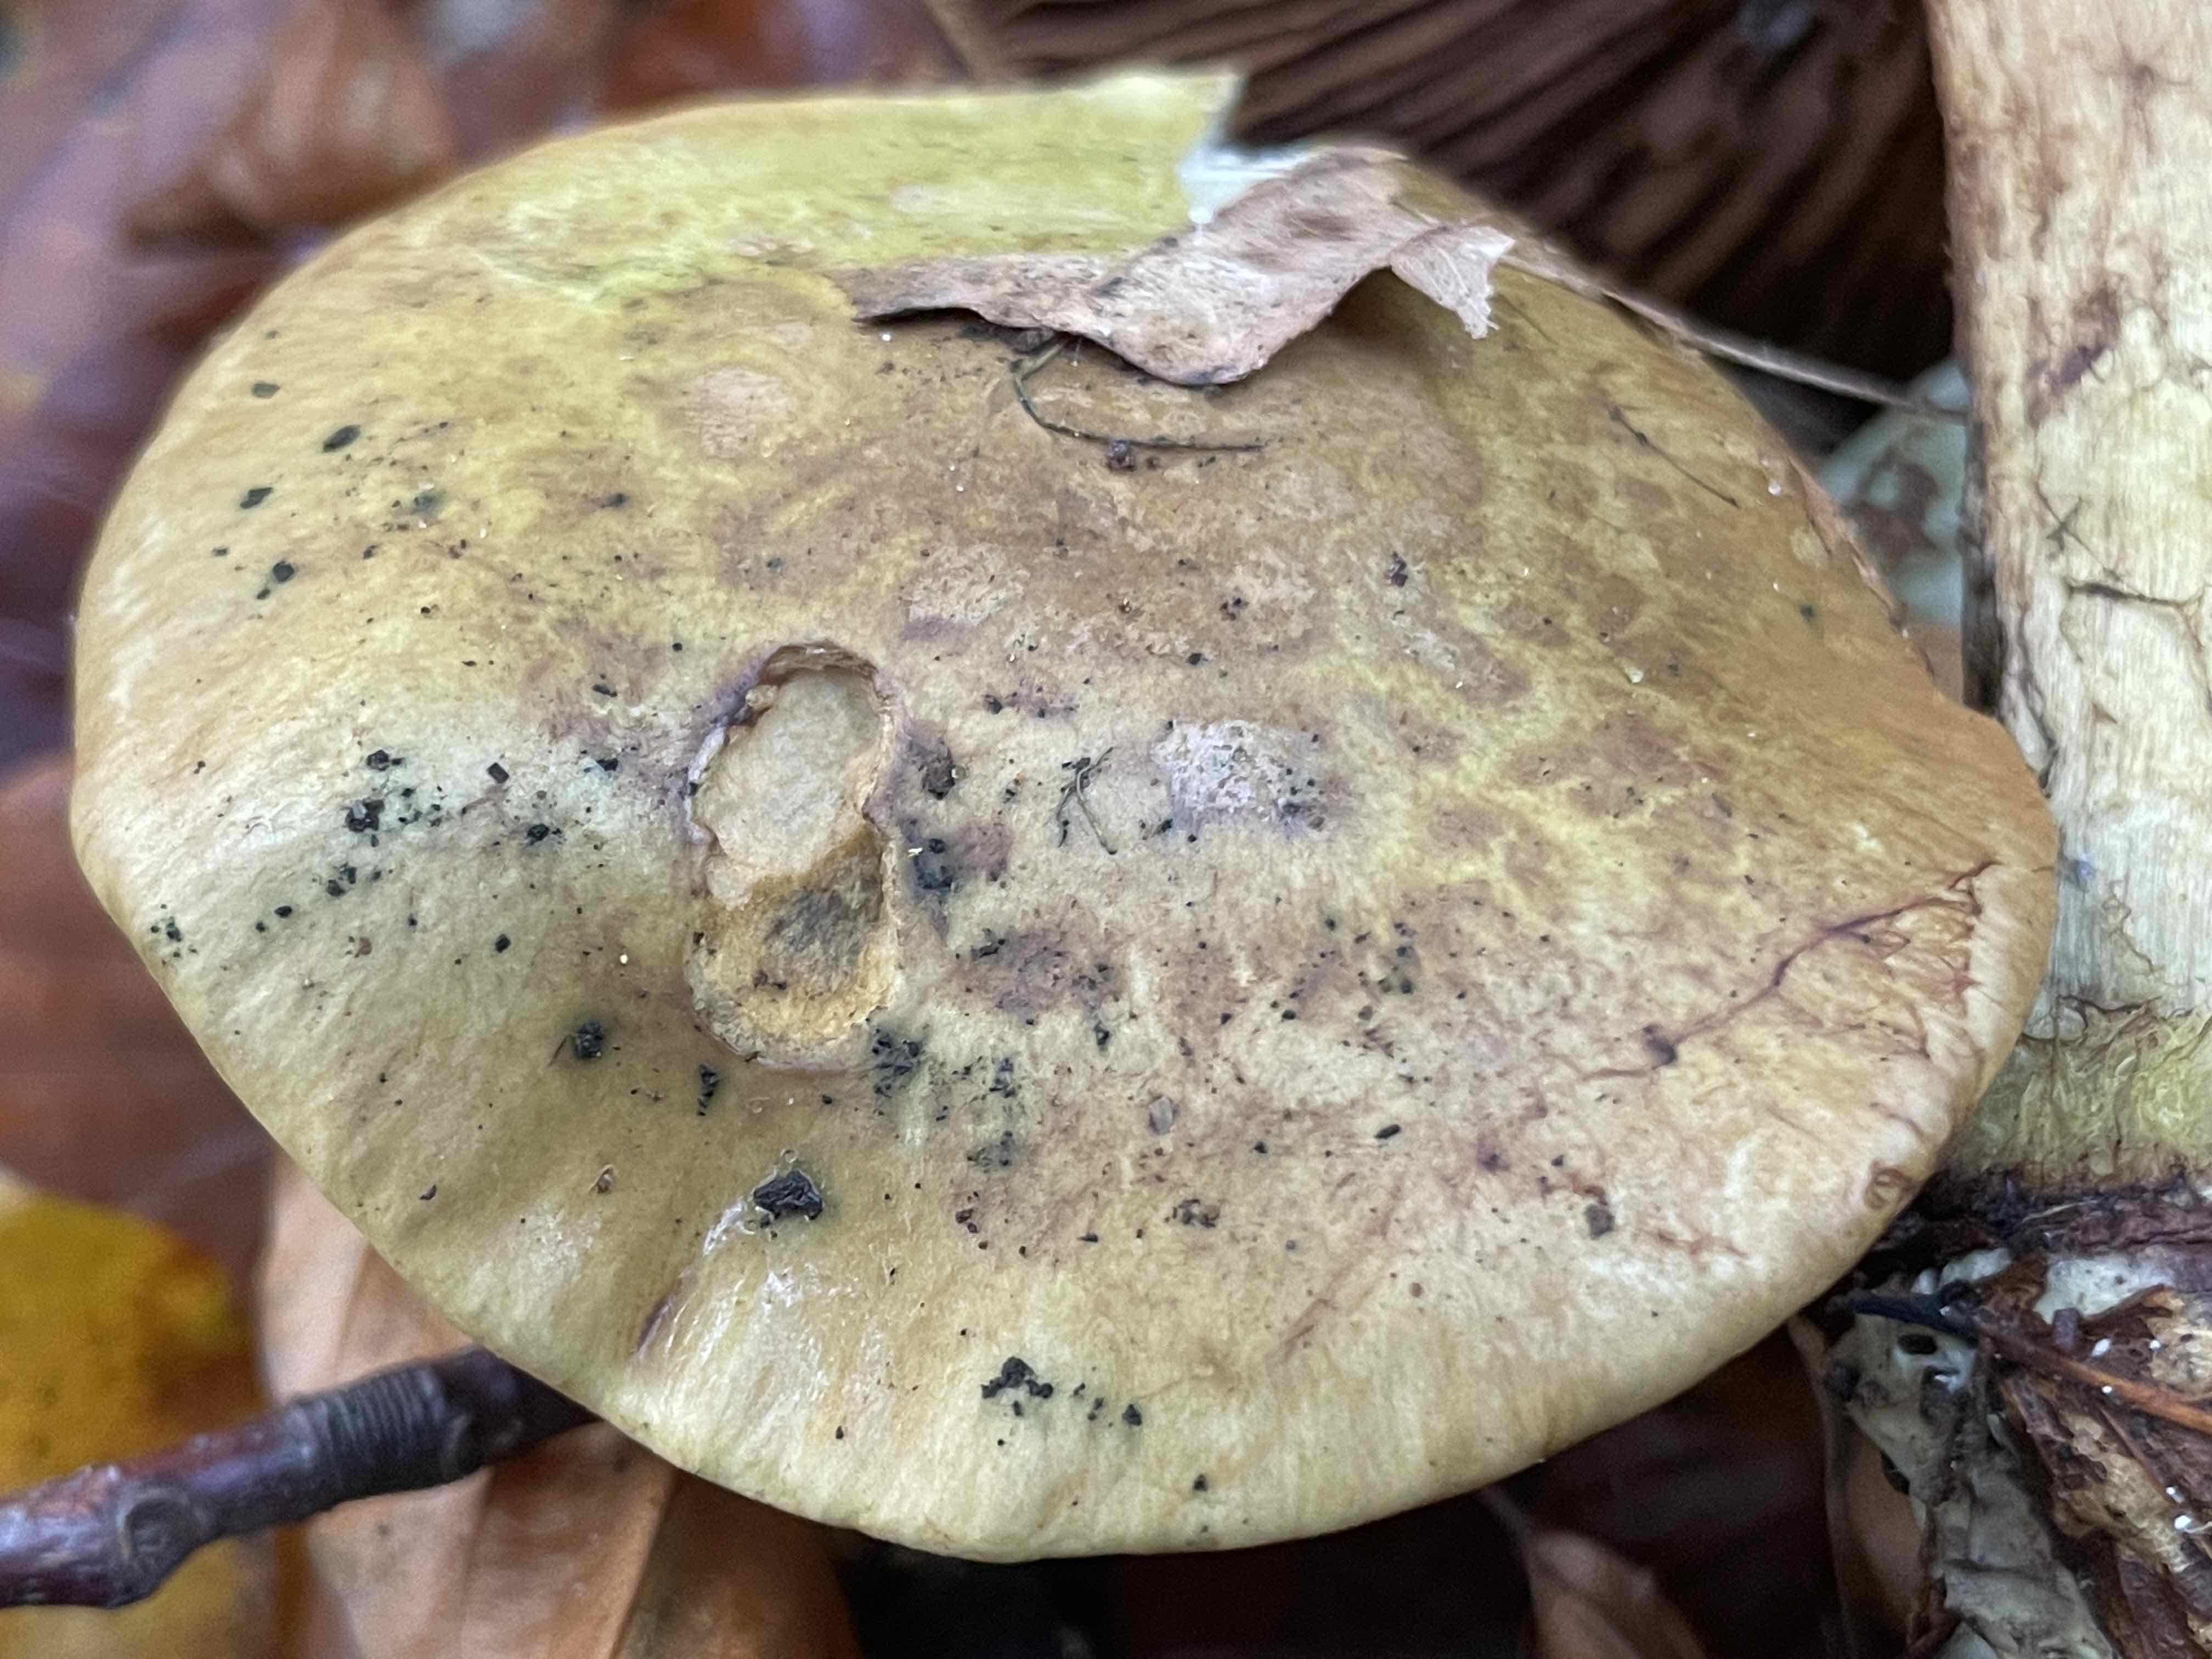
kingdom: Fungi
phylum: Basidiomycota
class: Agaricomycetes
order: Agaricales
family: Cortinariaceae
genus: Calonarius
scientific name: Calonarius odoratus
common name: krydret slørhat
